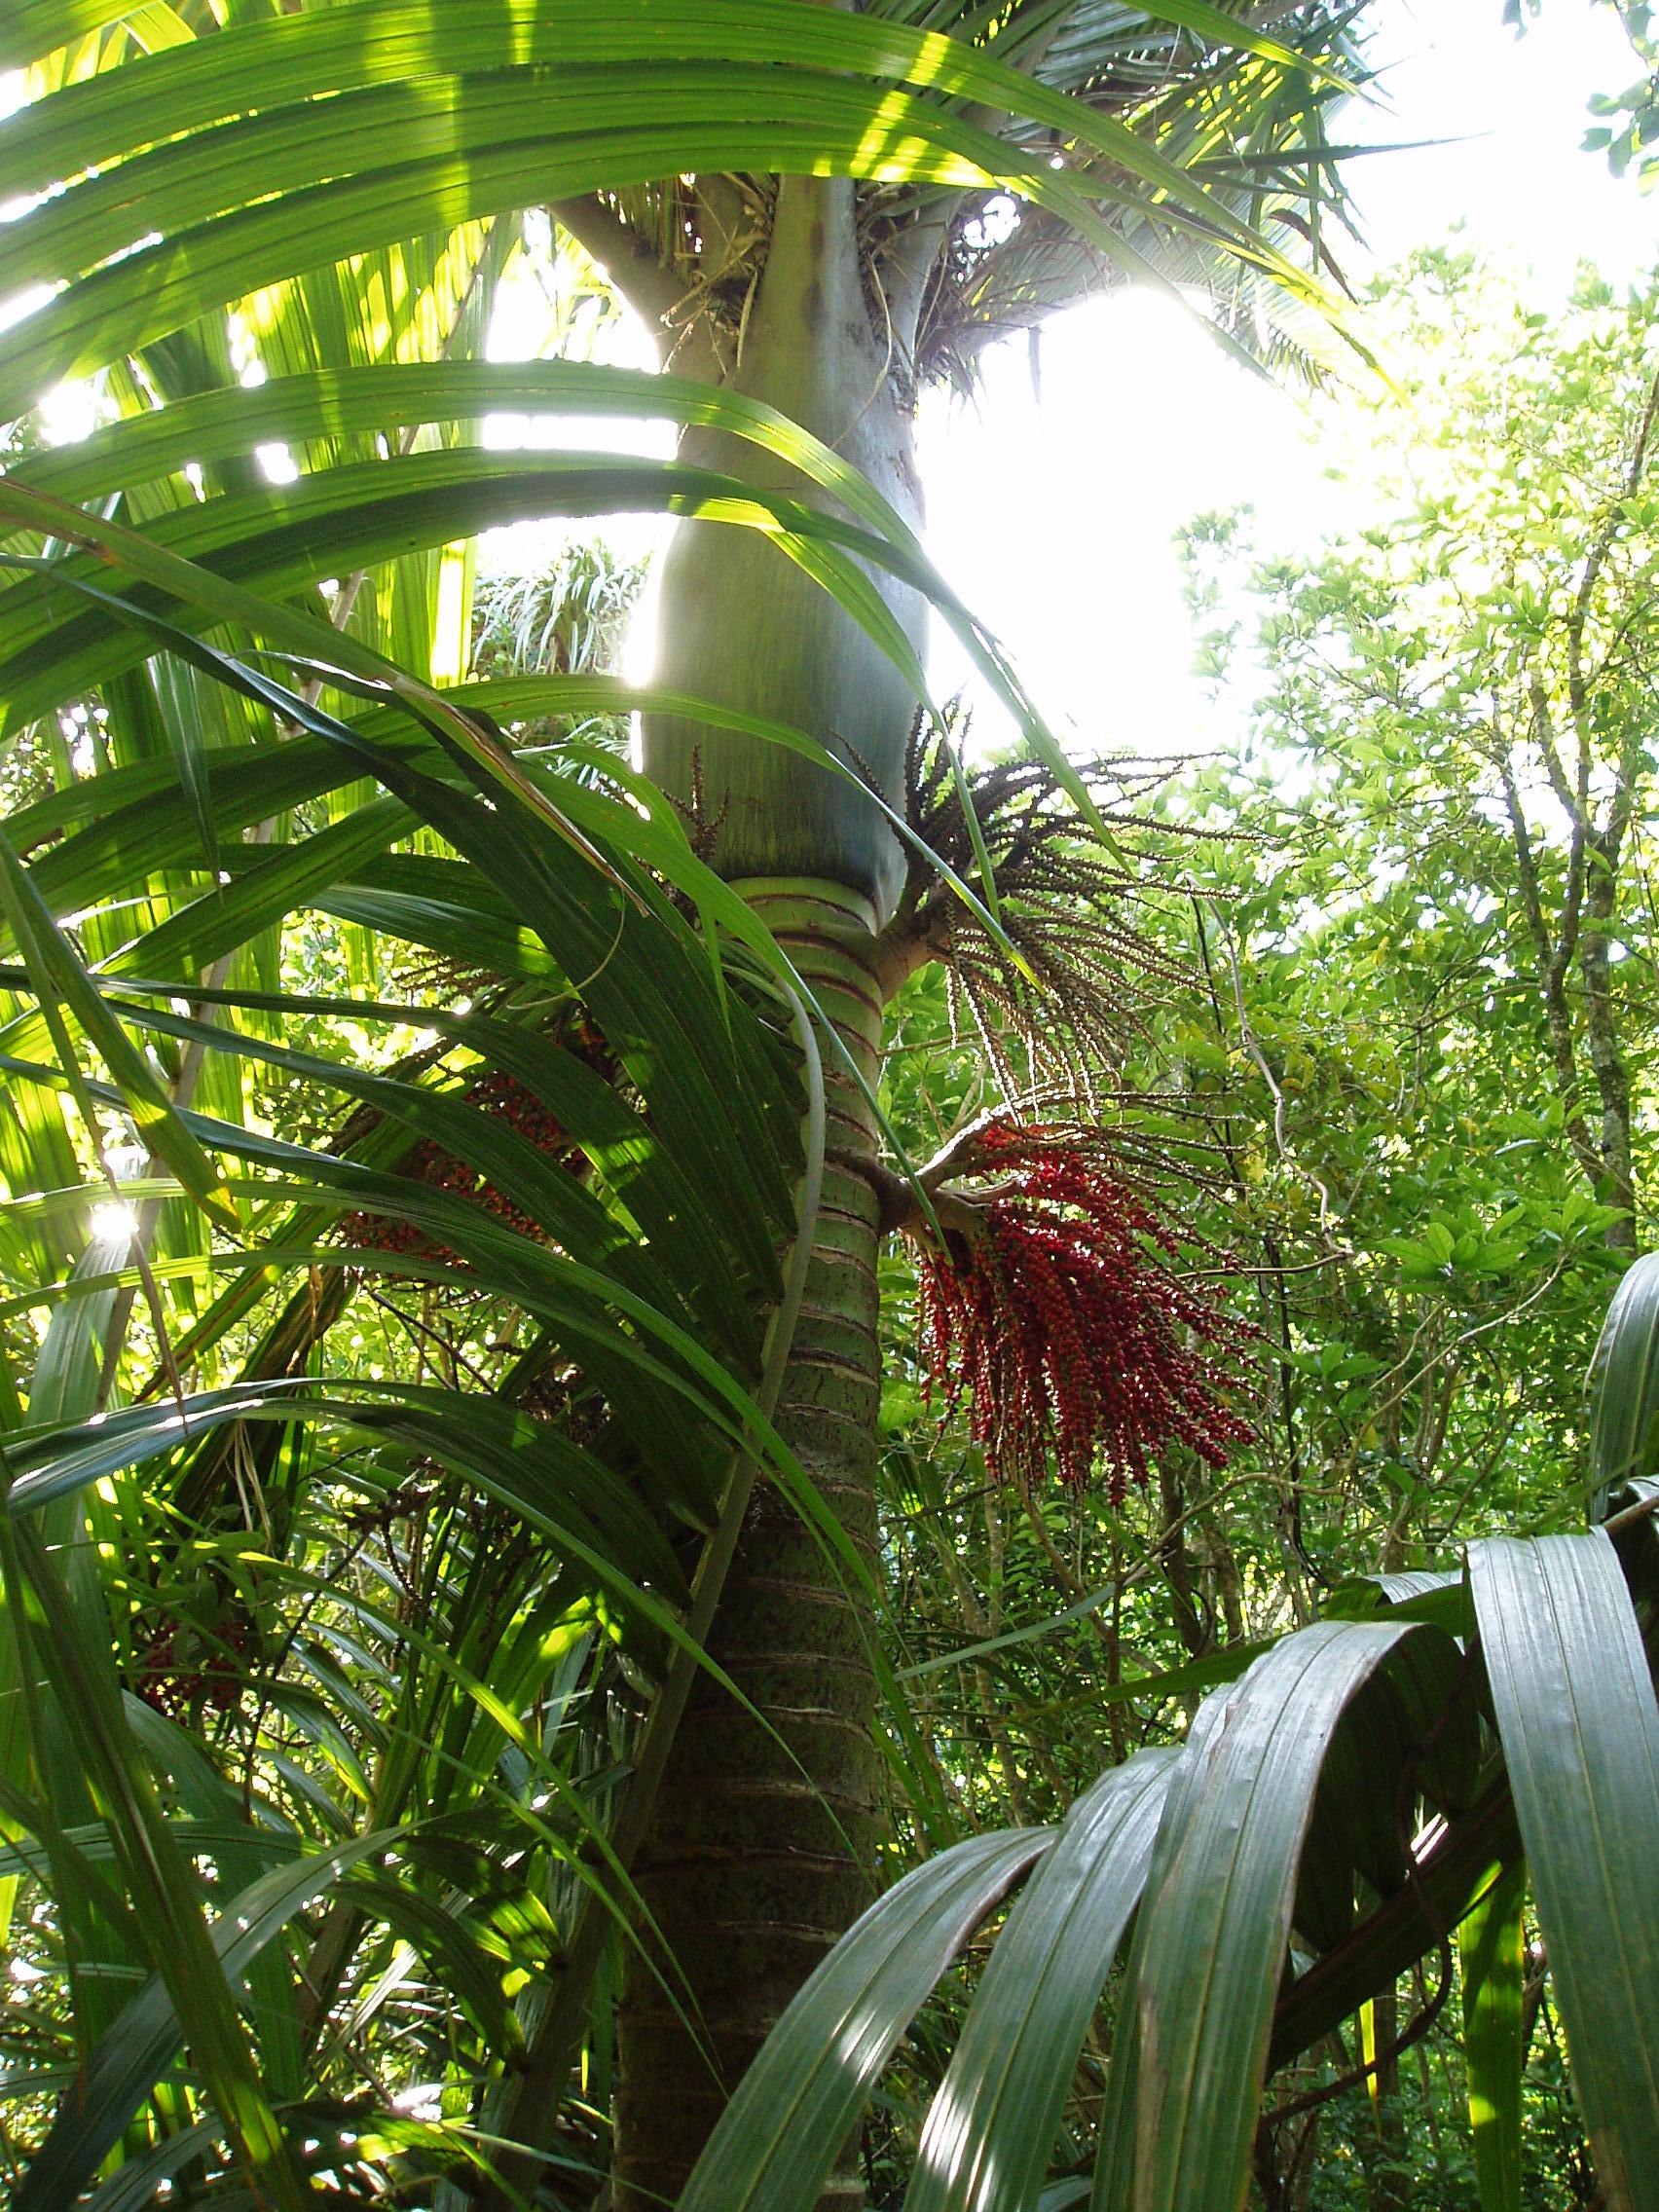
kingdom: Plantae
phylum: Tracheophyta
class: Liliopsida
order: Arecales
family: Arecaceae
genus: Rhopalostylis
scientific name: Rhopalostylis sapida
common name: Feather-duster palm
